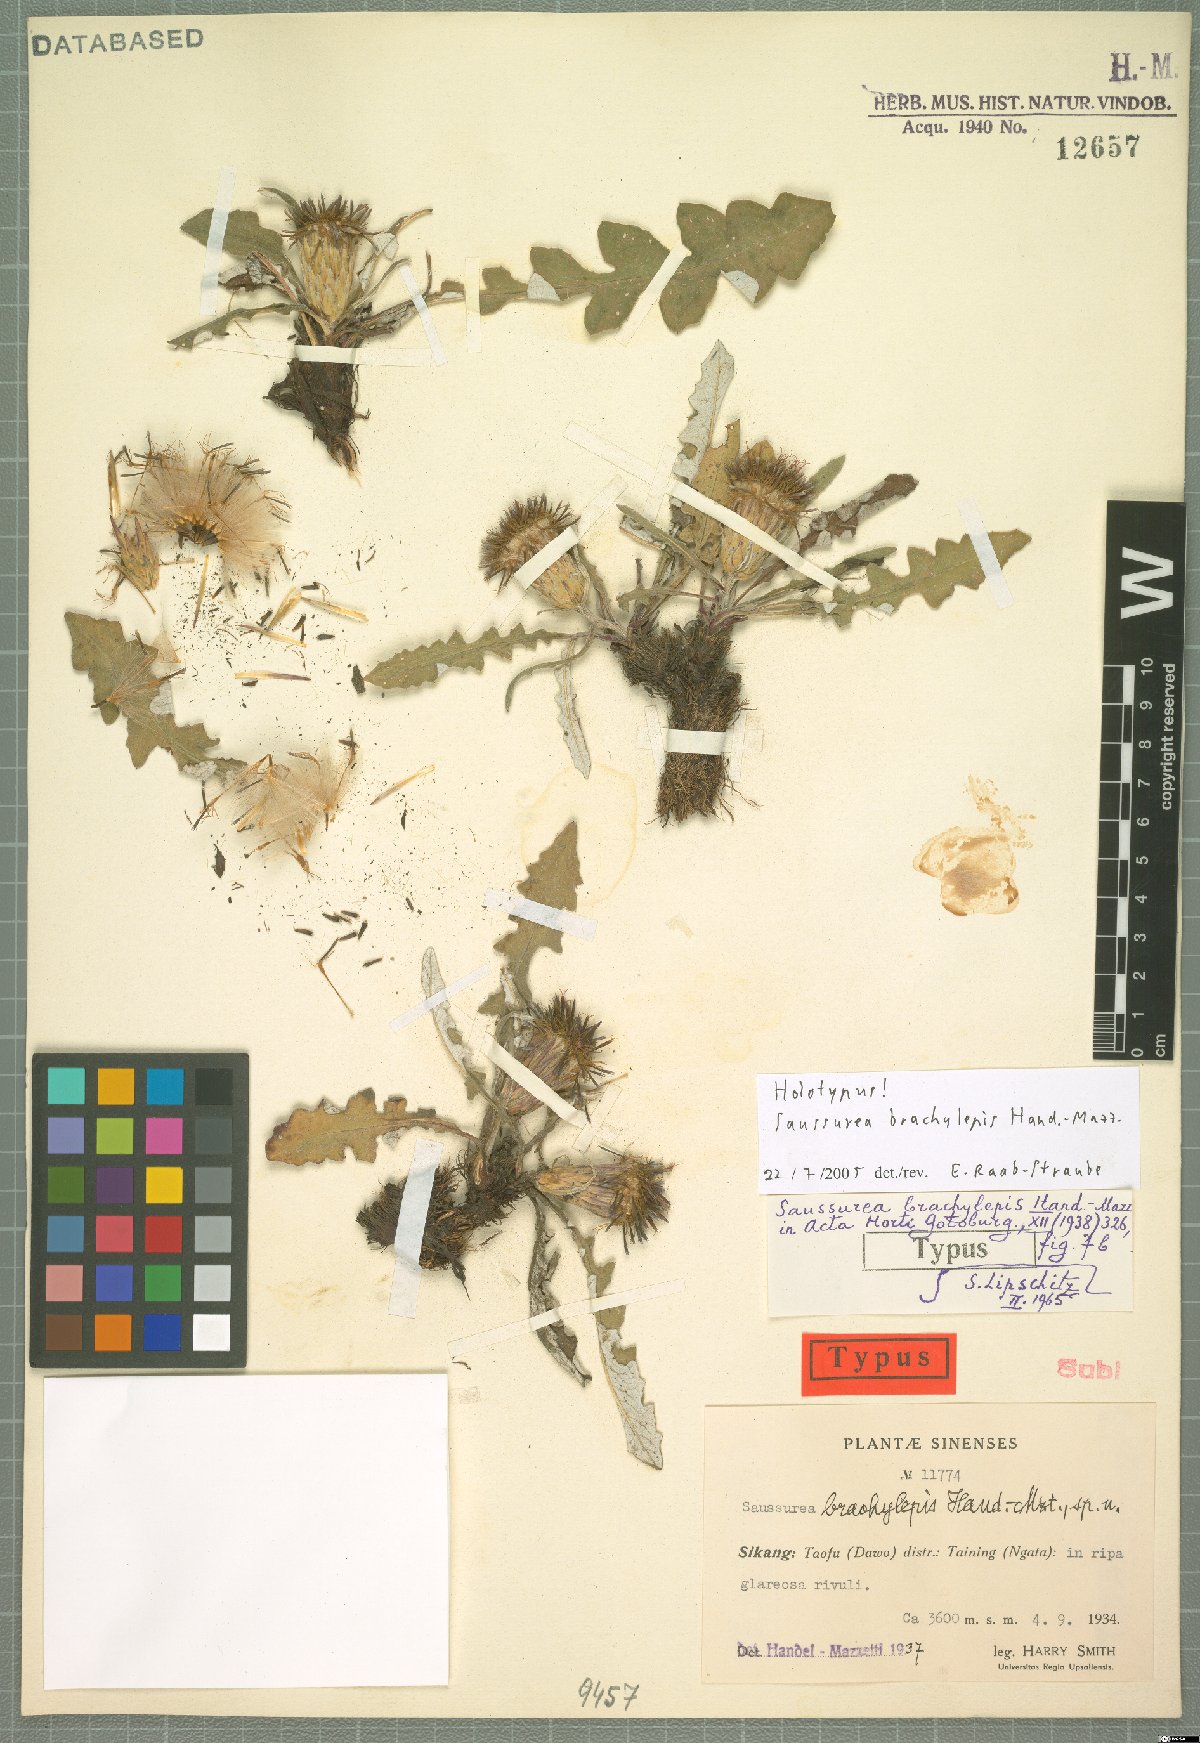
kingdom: Plantae
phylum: Tracheophyta
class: Magnoliopsida
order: Asterales
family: Asteraceae
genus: Saussurea
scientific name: Saussurea brachylepis
